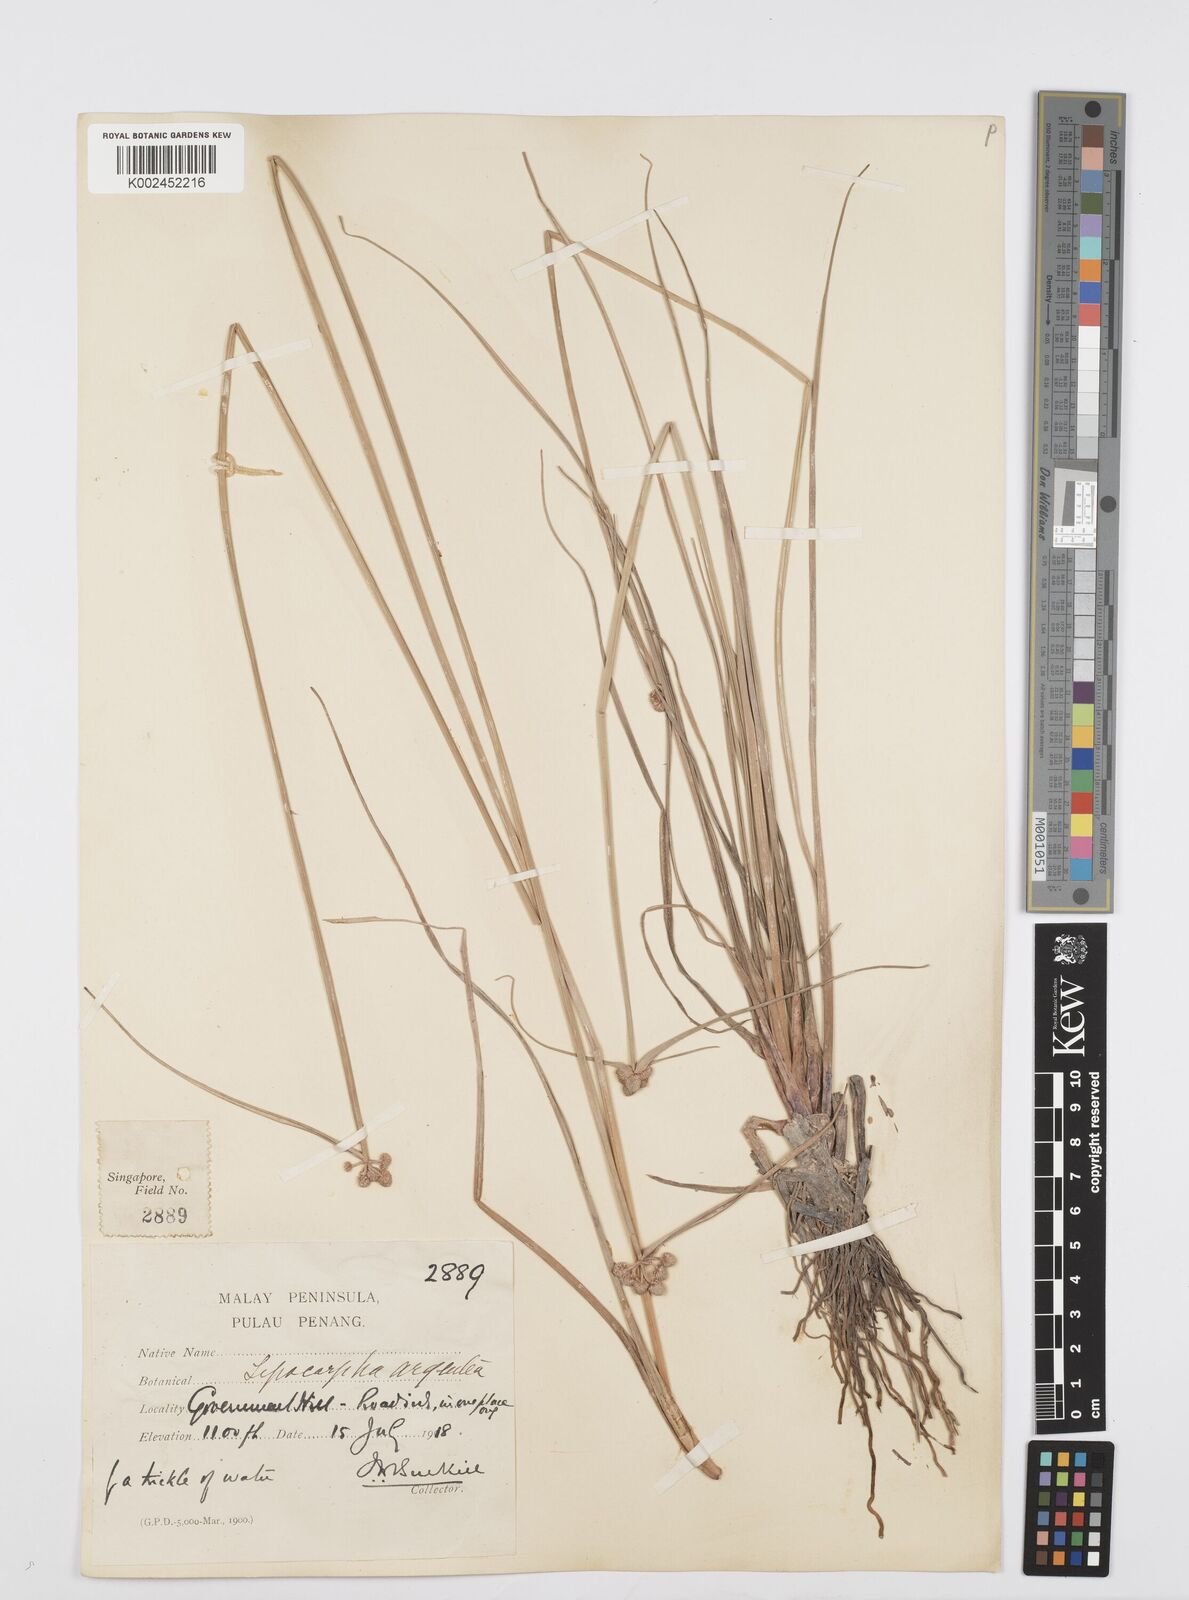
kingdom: Plantae
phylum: Tracheophyta
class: Liliopsida
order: Poales
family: Cyperaceae
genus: Cyperus
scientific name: Cyperus
